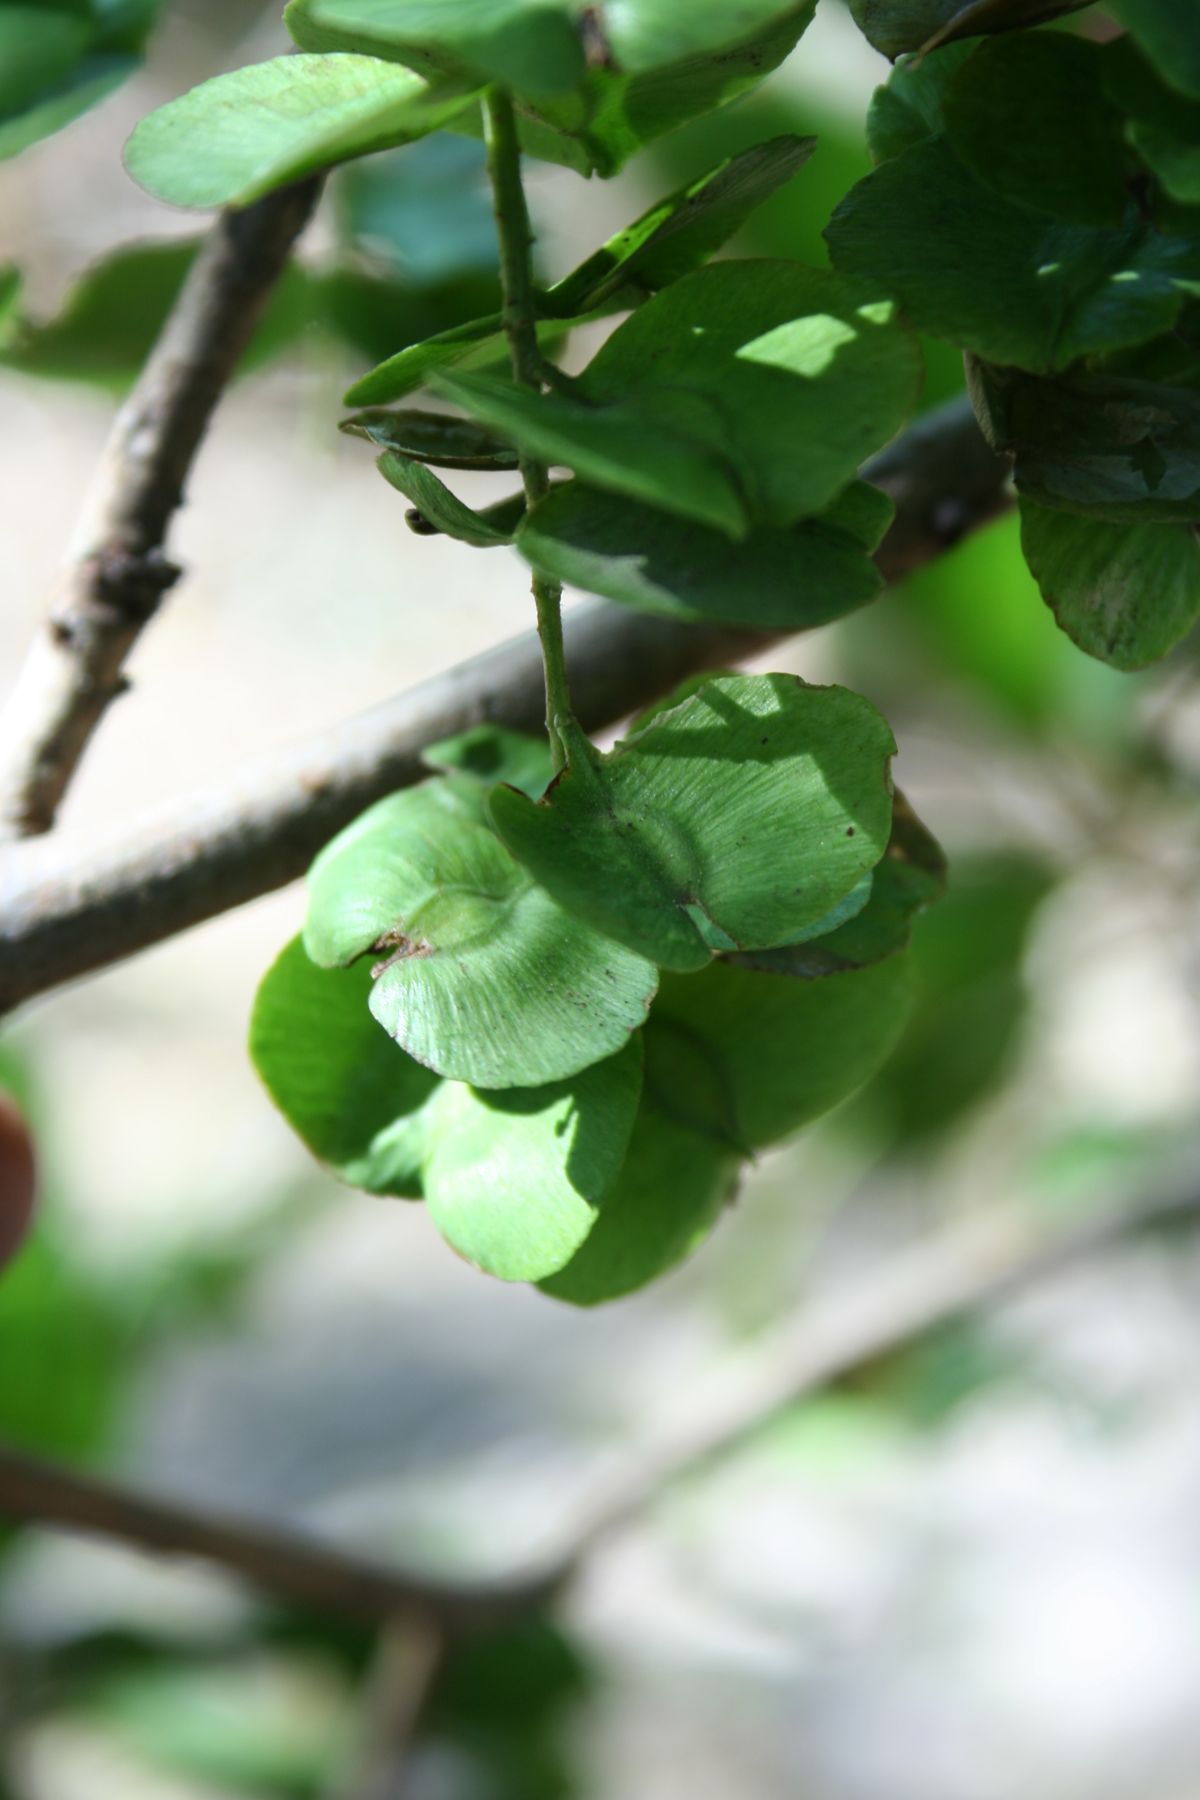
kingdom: Plantae
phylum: Tracheophyta
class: Magnoliopsida
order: Myrtales
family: Combretaceae
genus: Terminalia
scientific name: Terminalia oblonga
